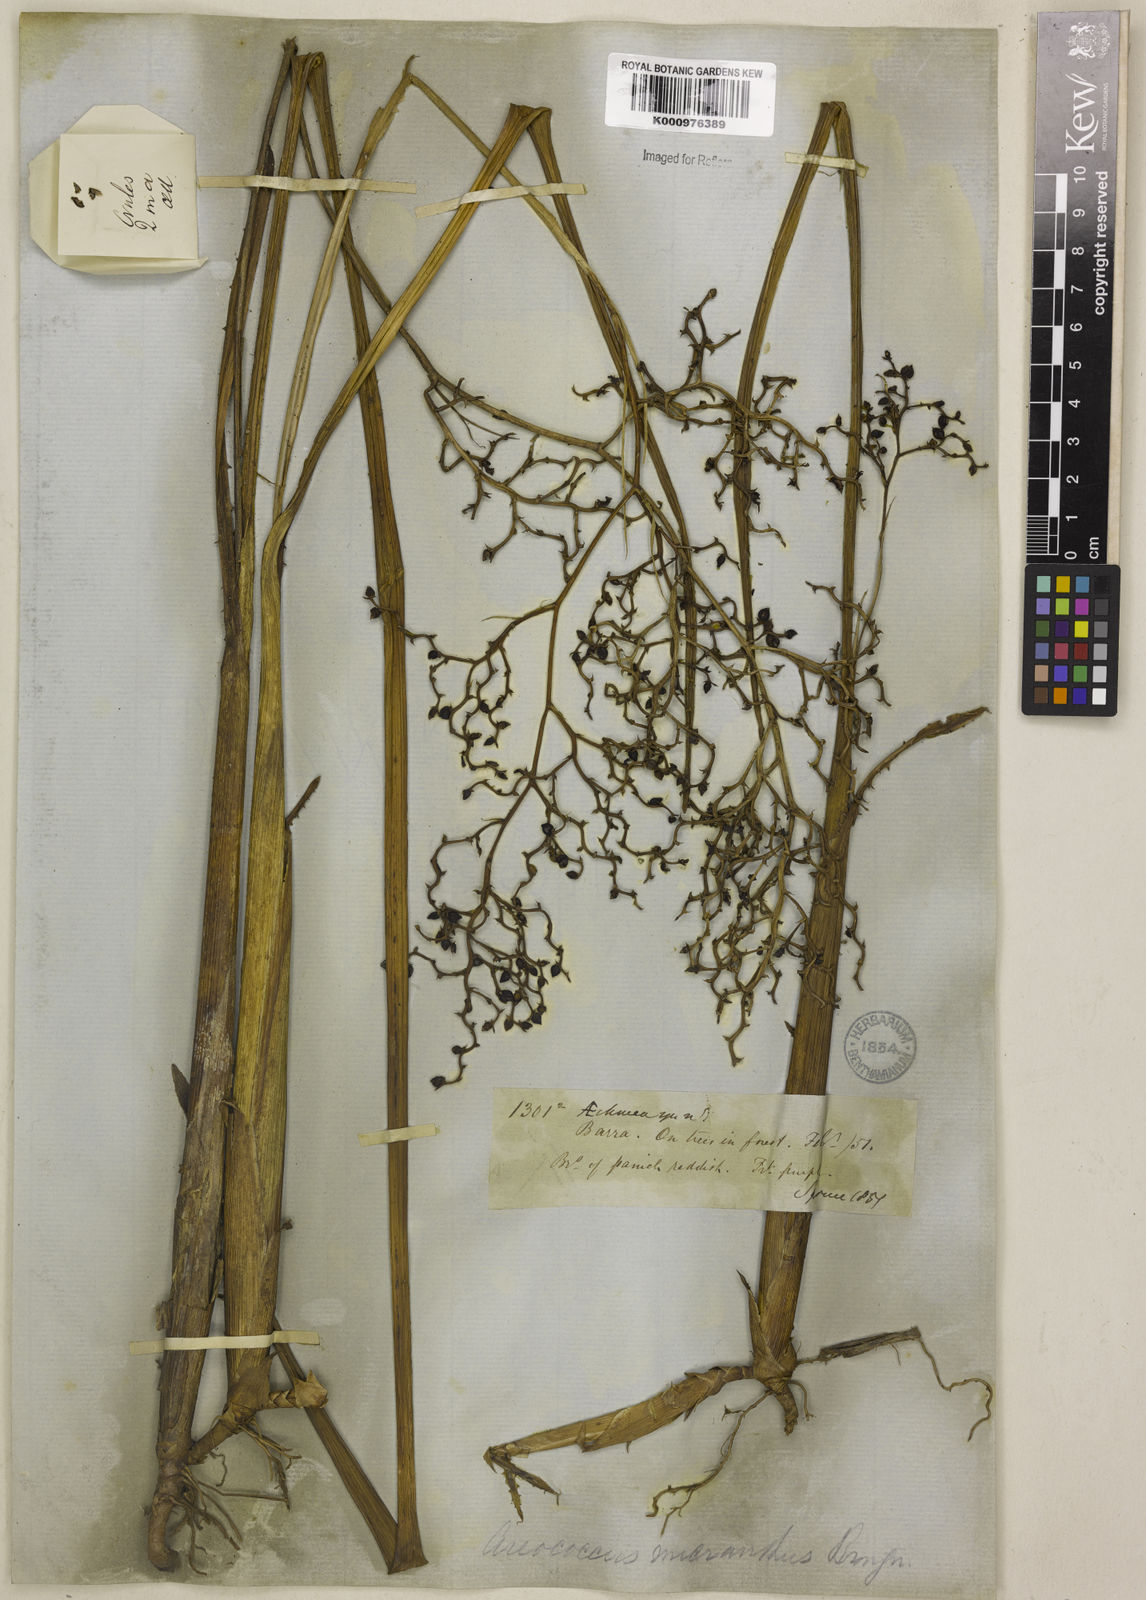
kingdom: Plantae
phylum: Tracheophyta
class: Liliopsida
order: Poales
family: Bromeliaceae
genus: Araeococcus
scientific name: Araeococcus micranthus
